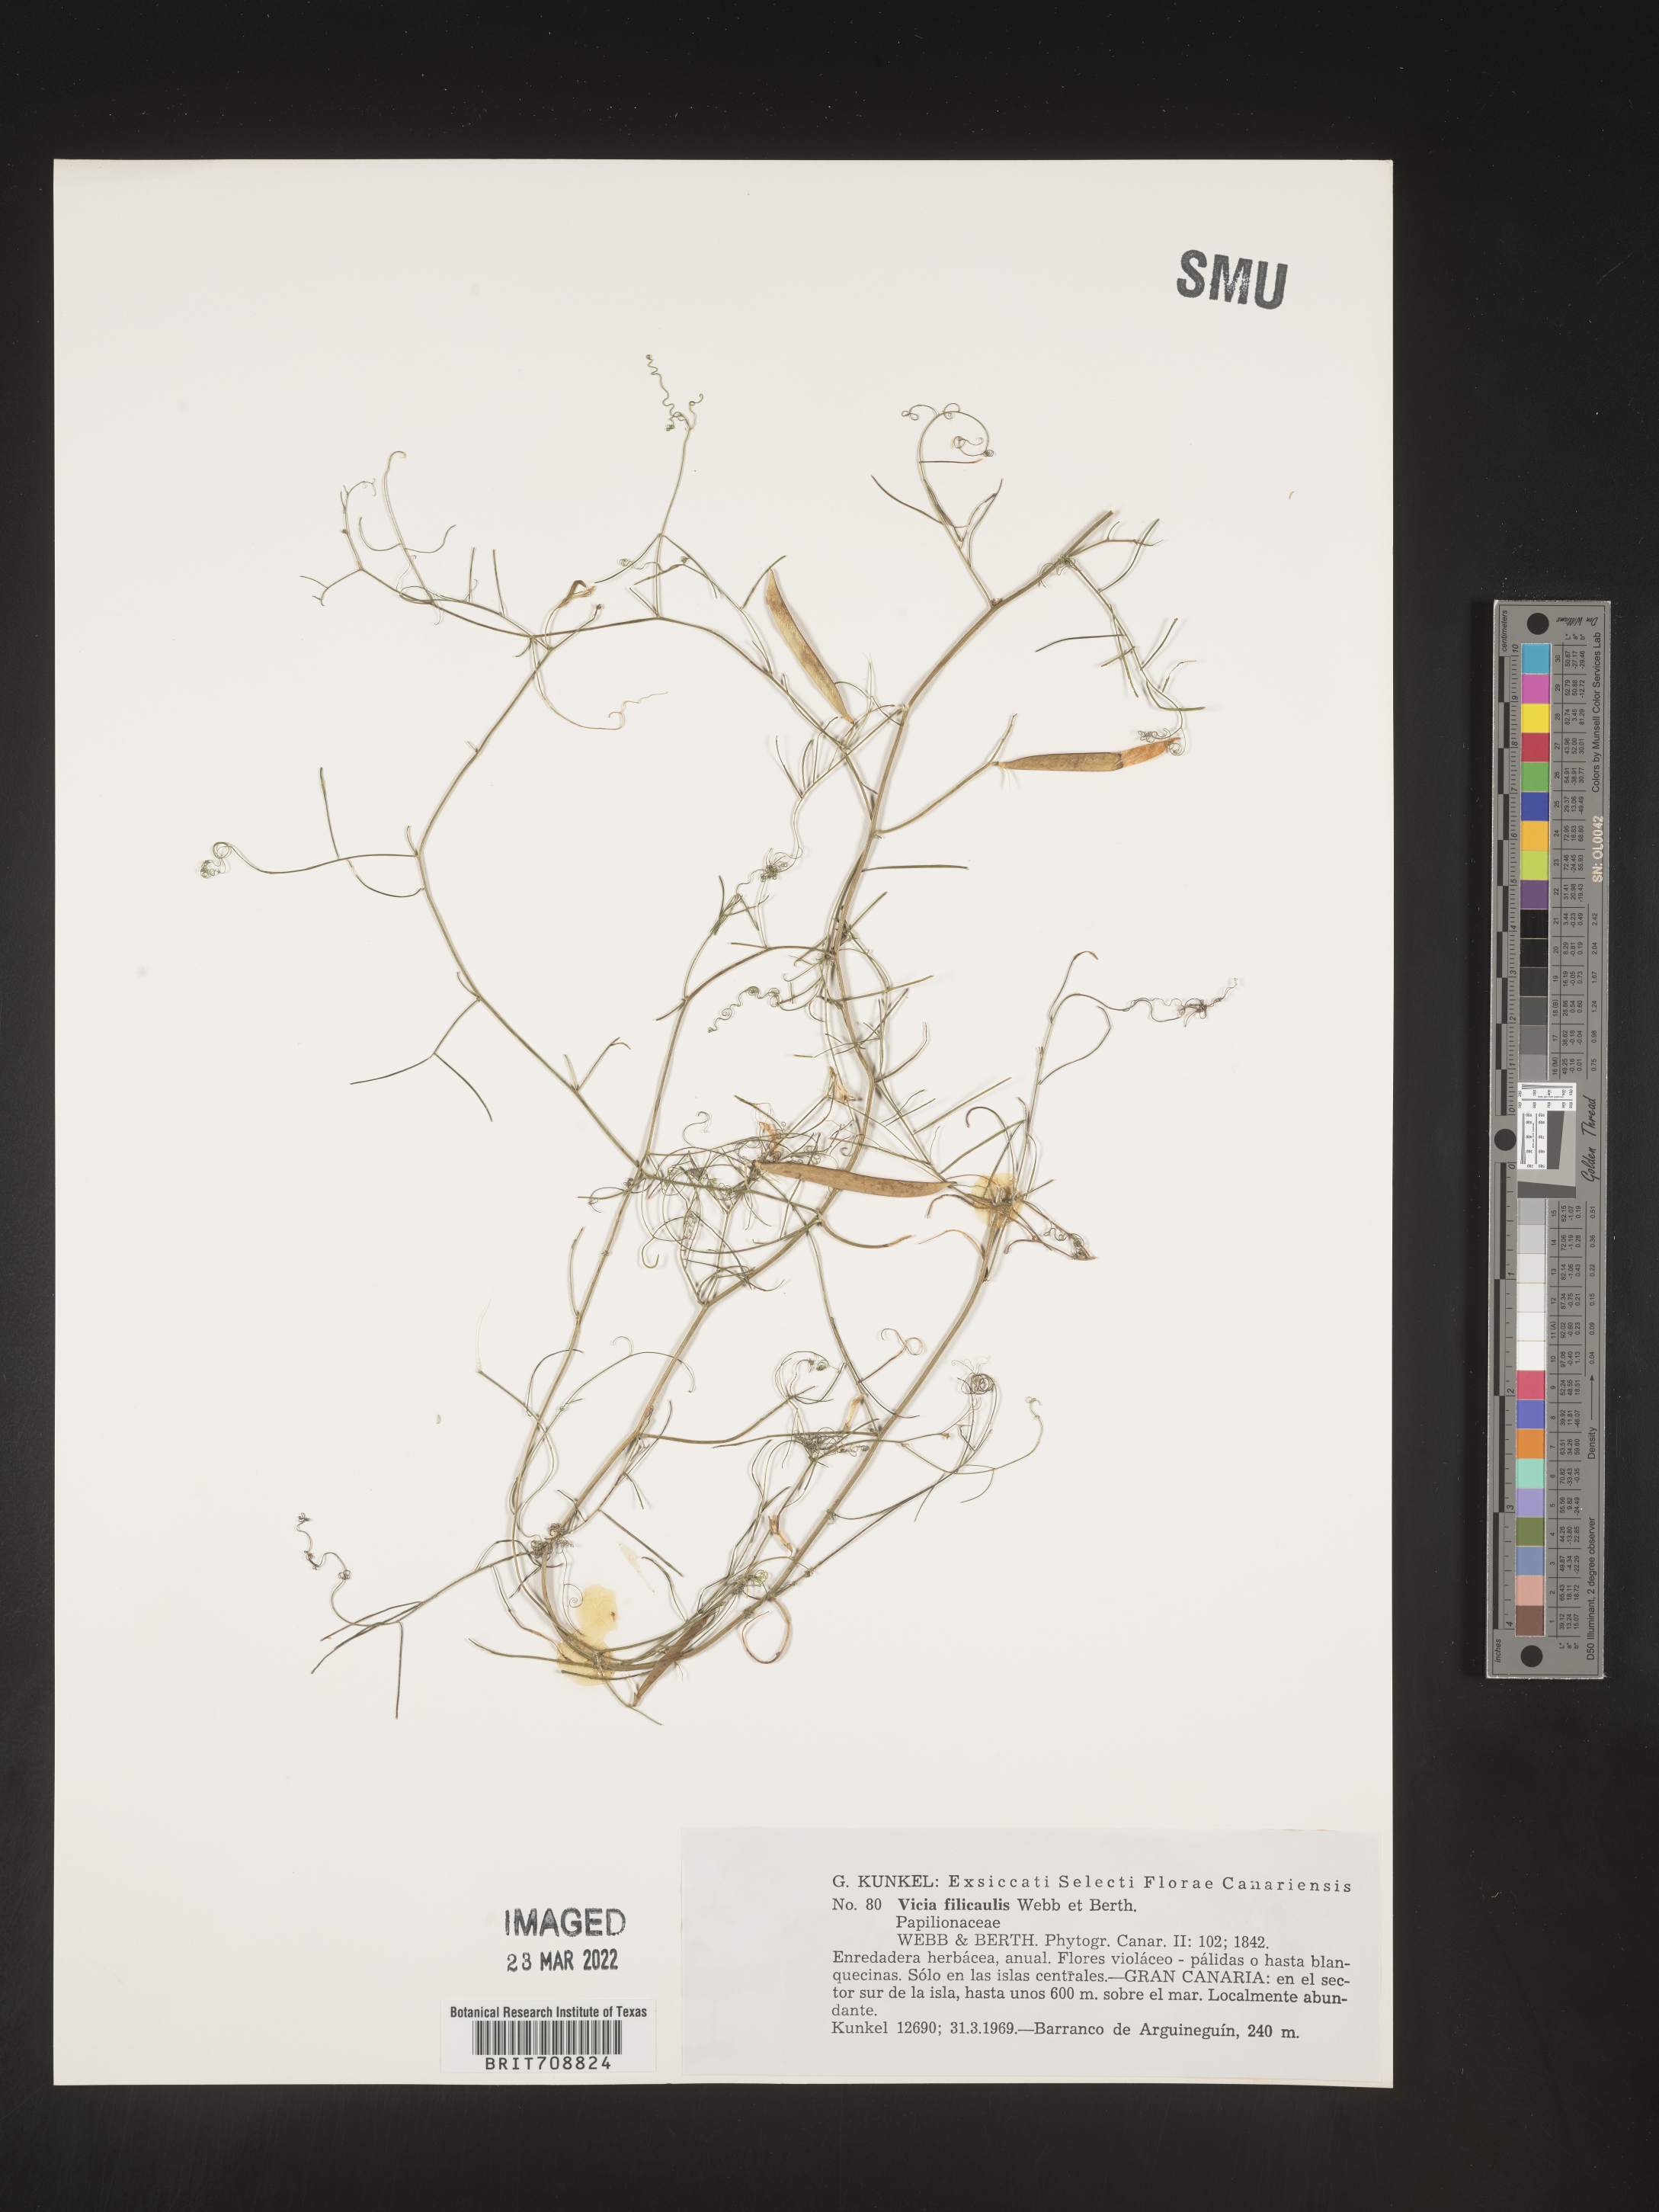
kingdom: Plantae
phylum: Tracheophyta
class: Magnoliopsida
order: Fabales
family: Fabaceae
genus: Vicia
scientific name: Vicia
